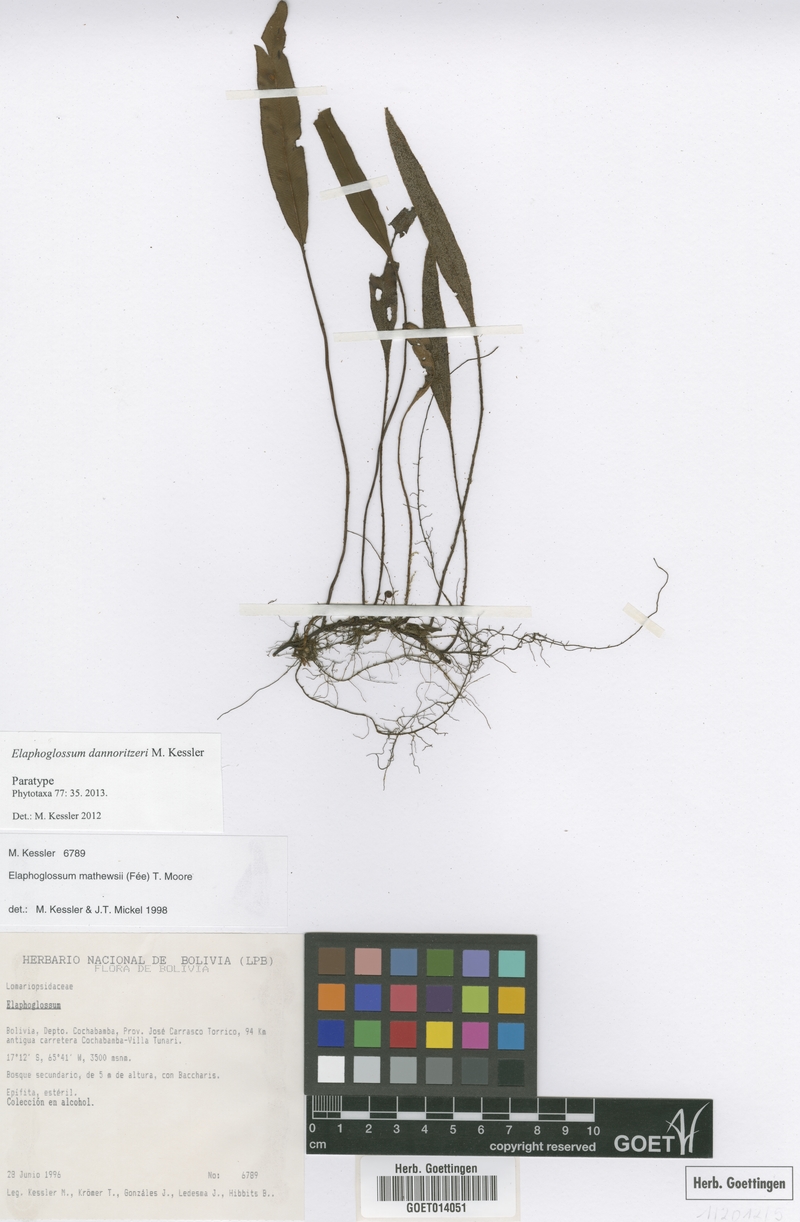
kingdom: Plantae
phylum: Tracheophyta
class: Polypodiopsida
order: Polypodiales
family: Dryopteridaceae
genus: Elaphoglossum
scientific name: Elaphoglossum dannoritzeri
